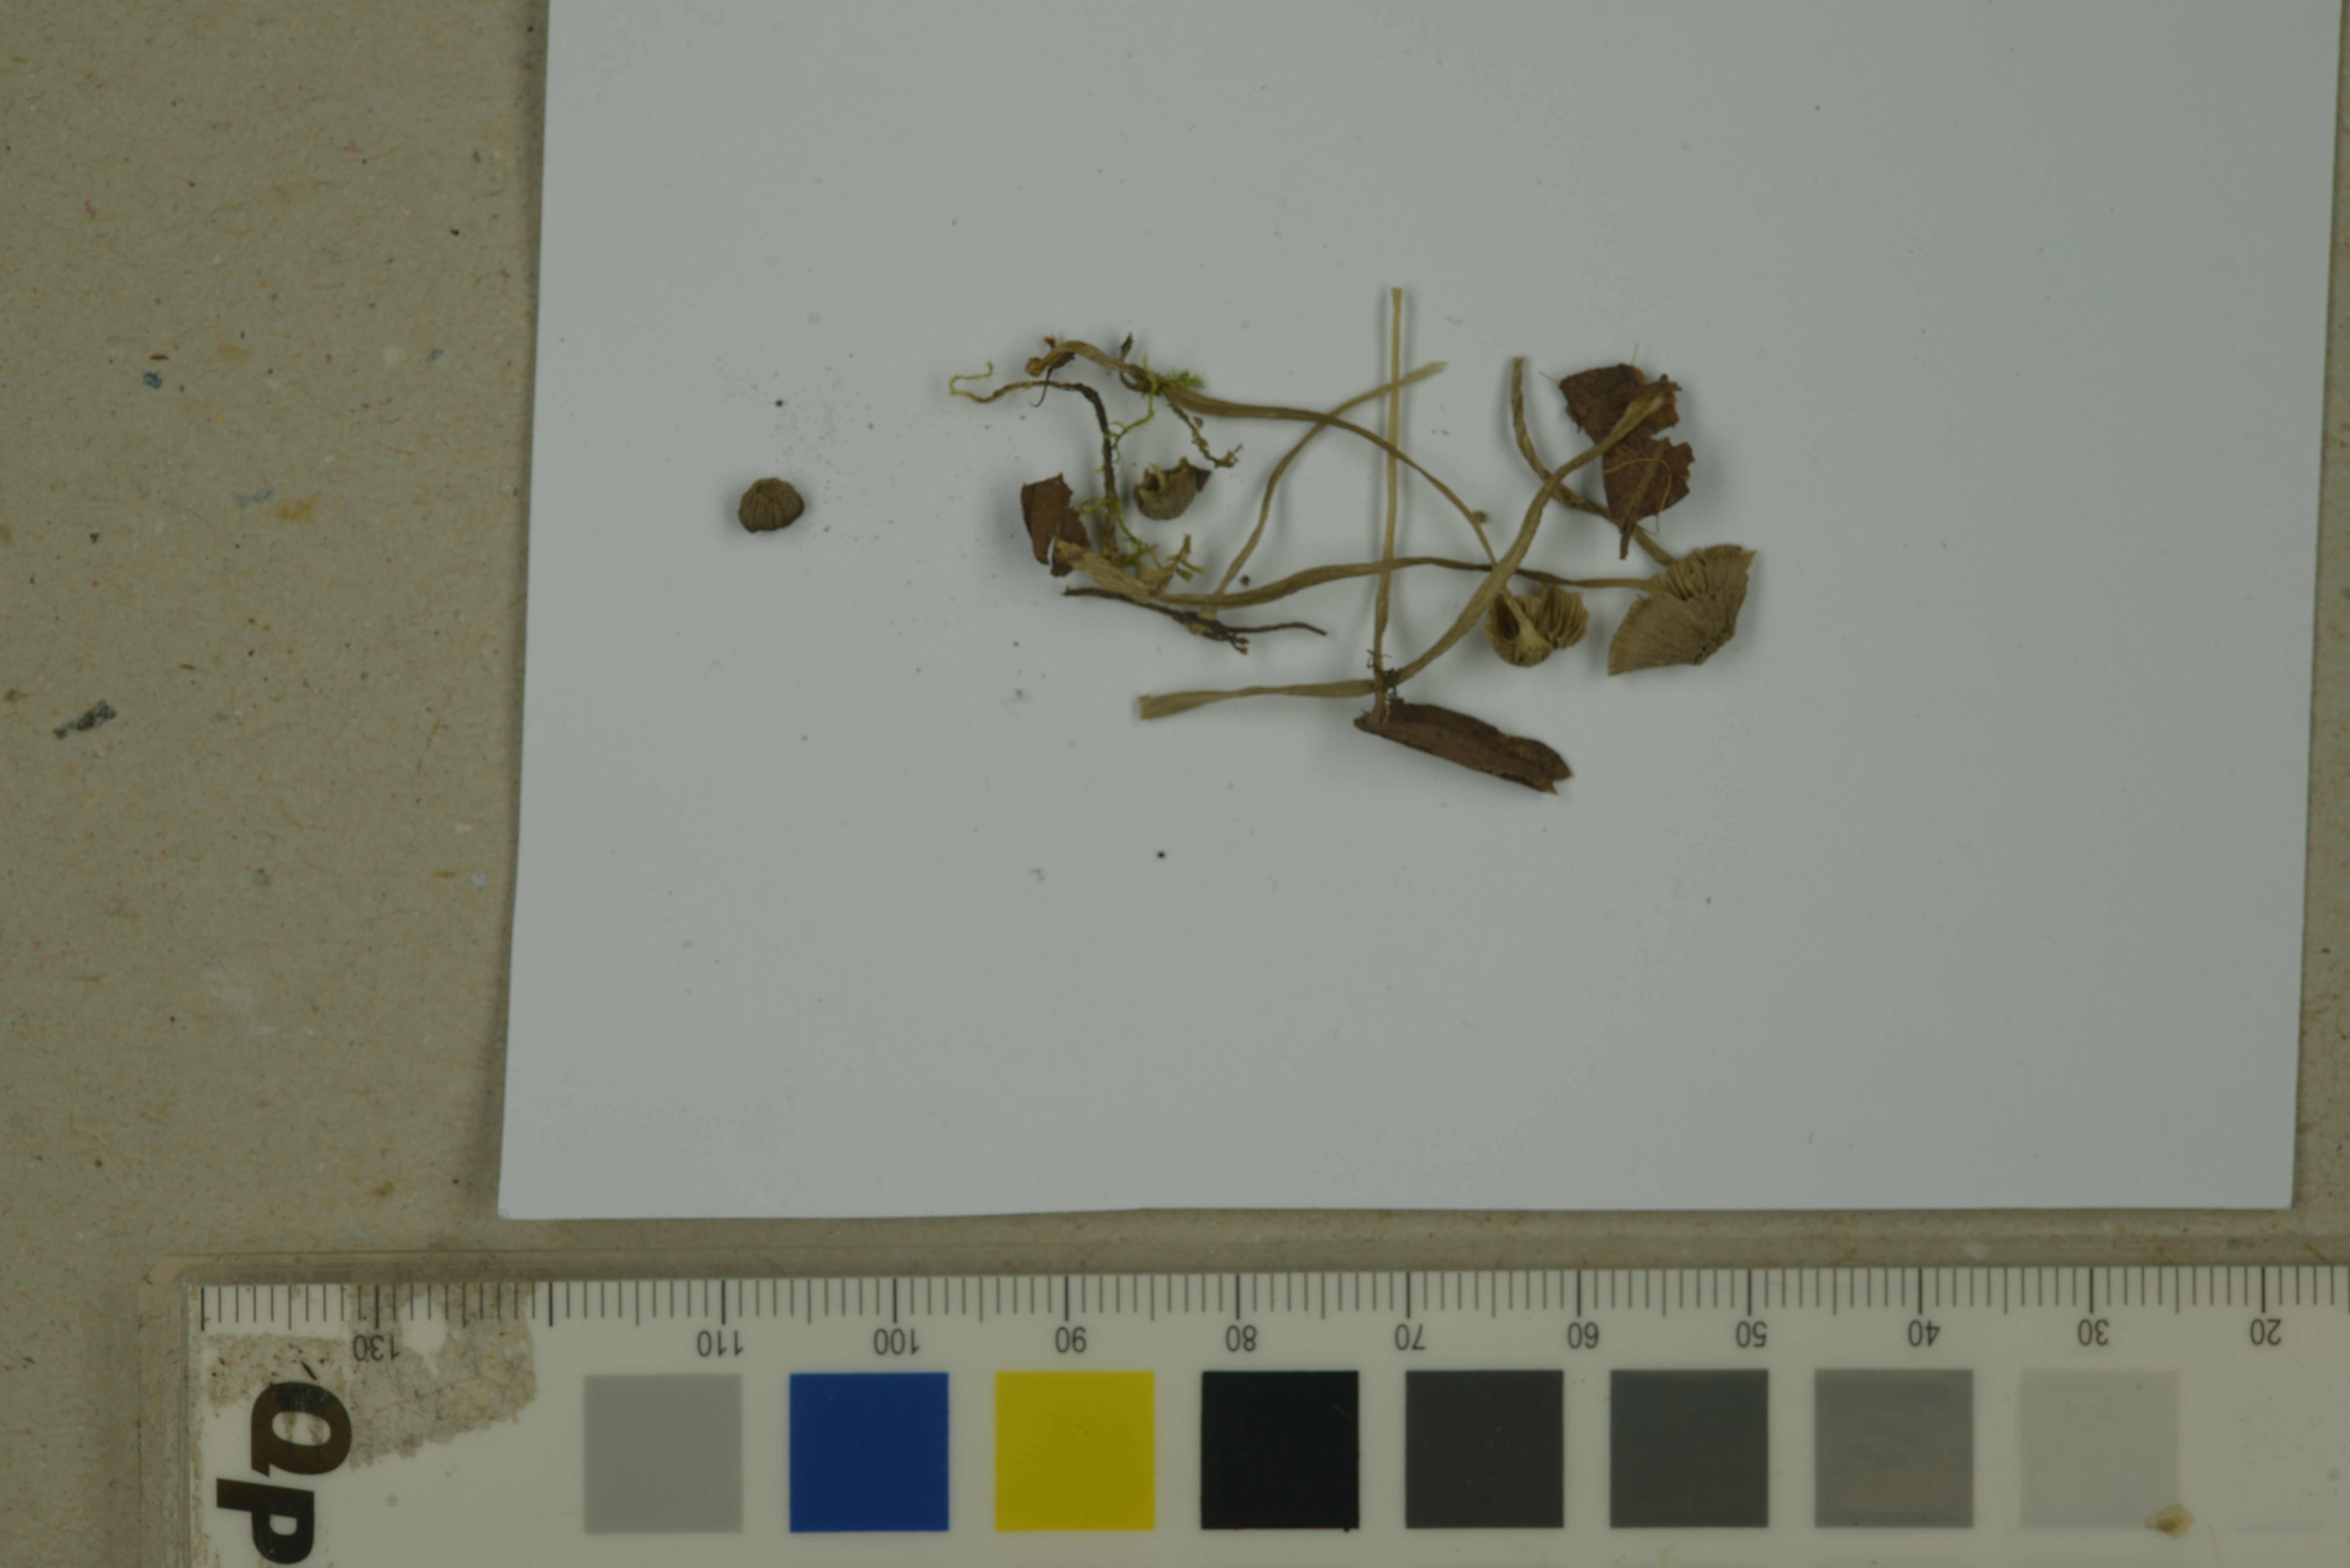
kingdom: Fungi
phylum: Basidiomycota
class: Agaricomycetes
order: Agaricales
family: Mycenaceae
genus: Mycena
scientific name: Mycena cinerella
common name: Mealy bonnet
